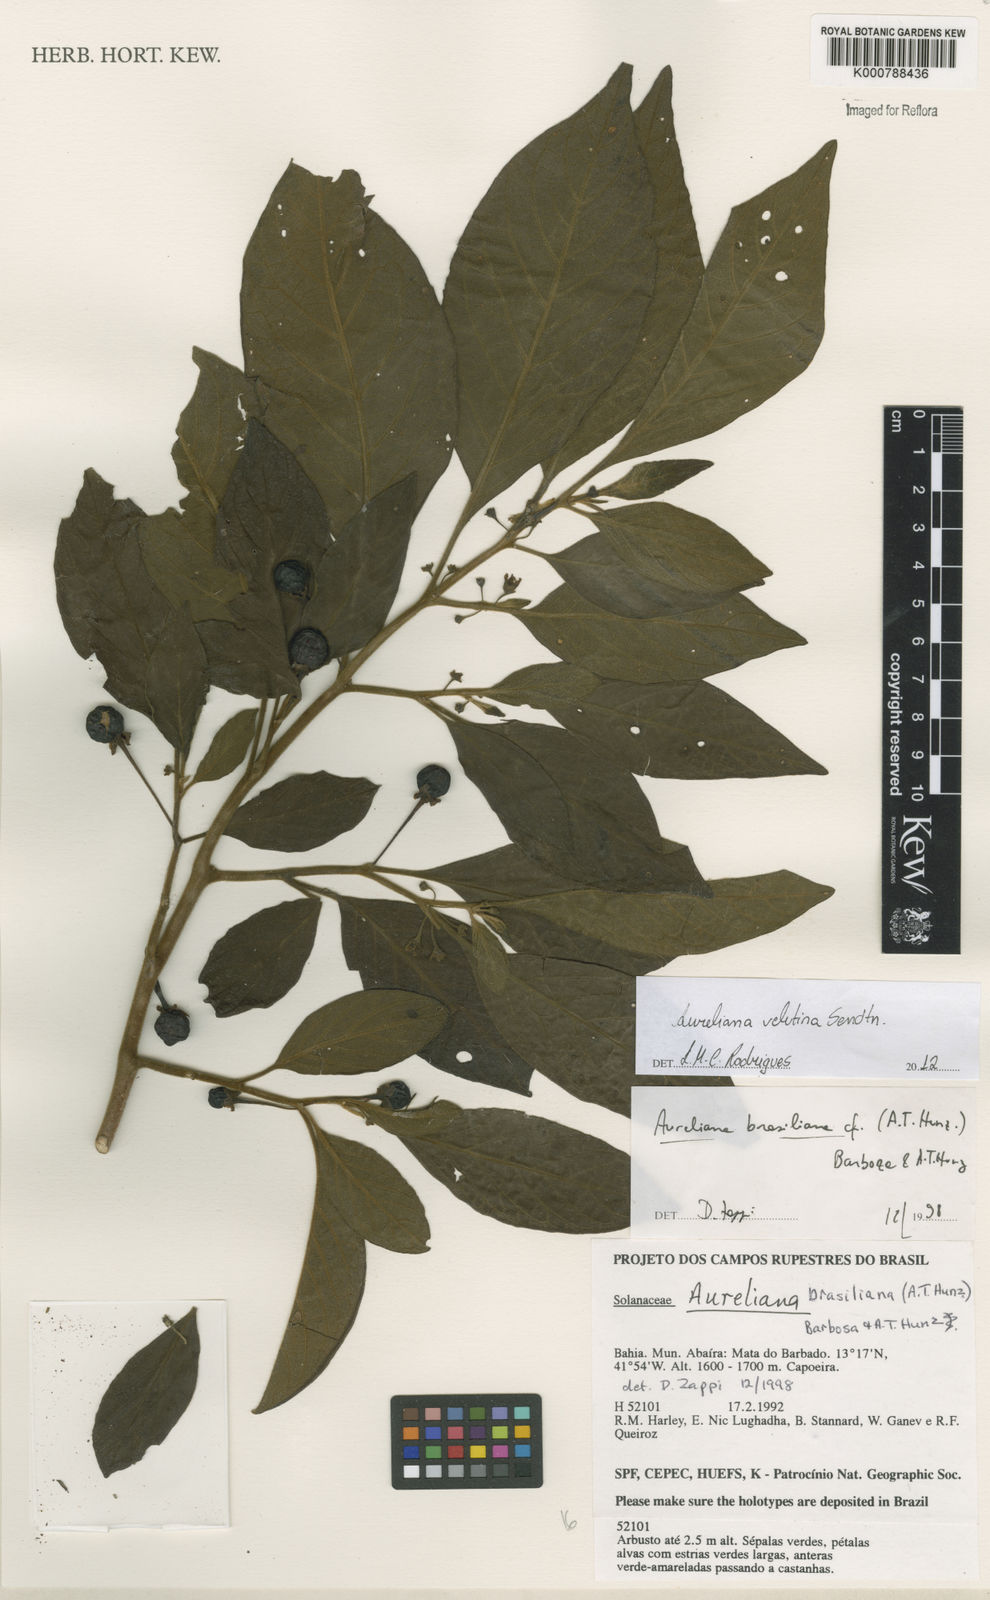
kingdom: Plantae
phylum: Tracheophyta
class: Magnoliopsida
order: Solanales
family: Solanaceae
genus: Athenaea
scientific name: Athenaea velutina
